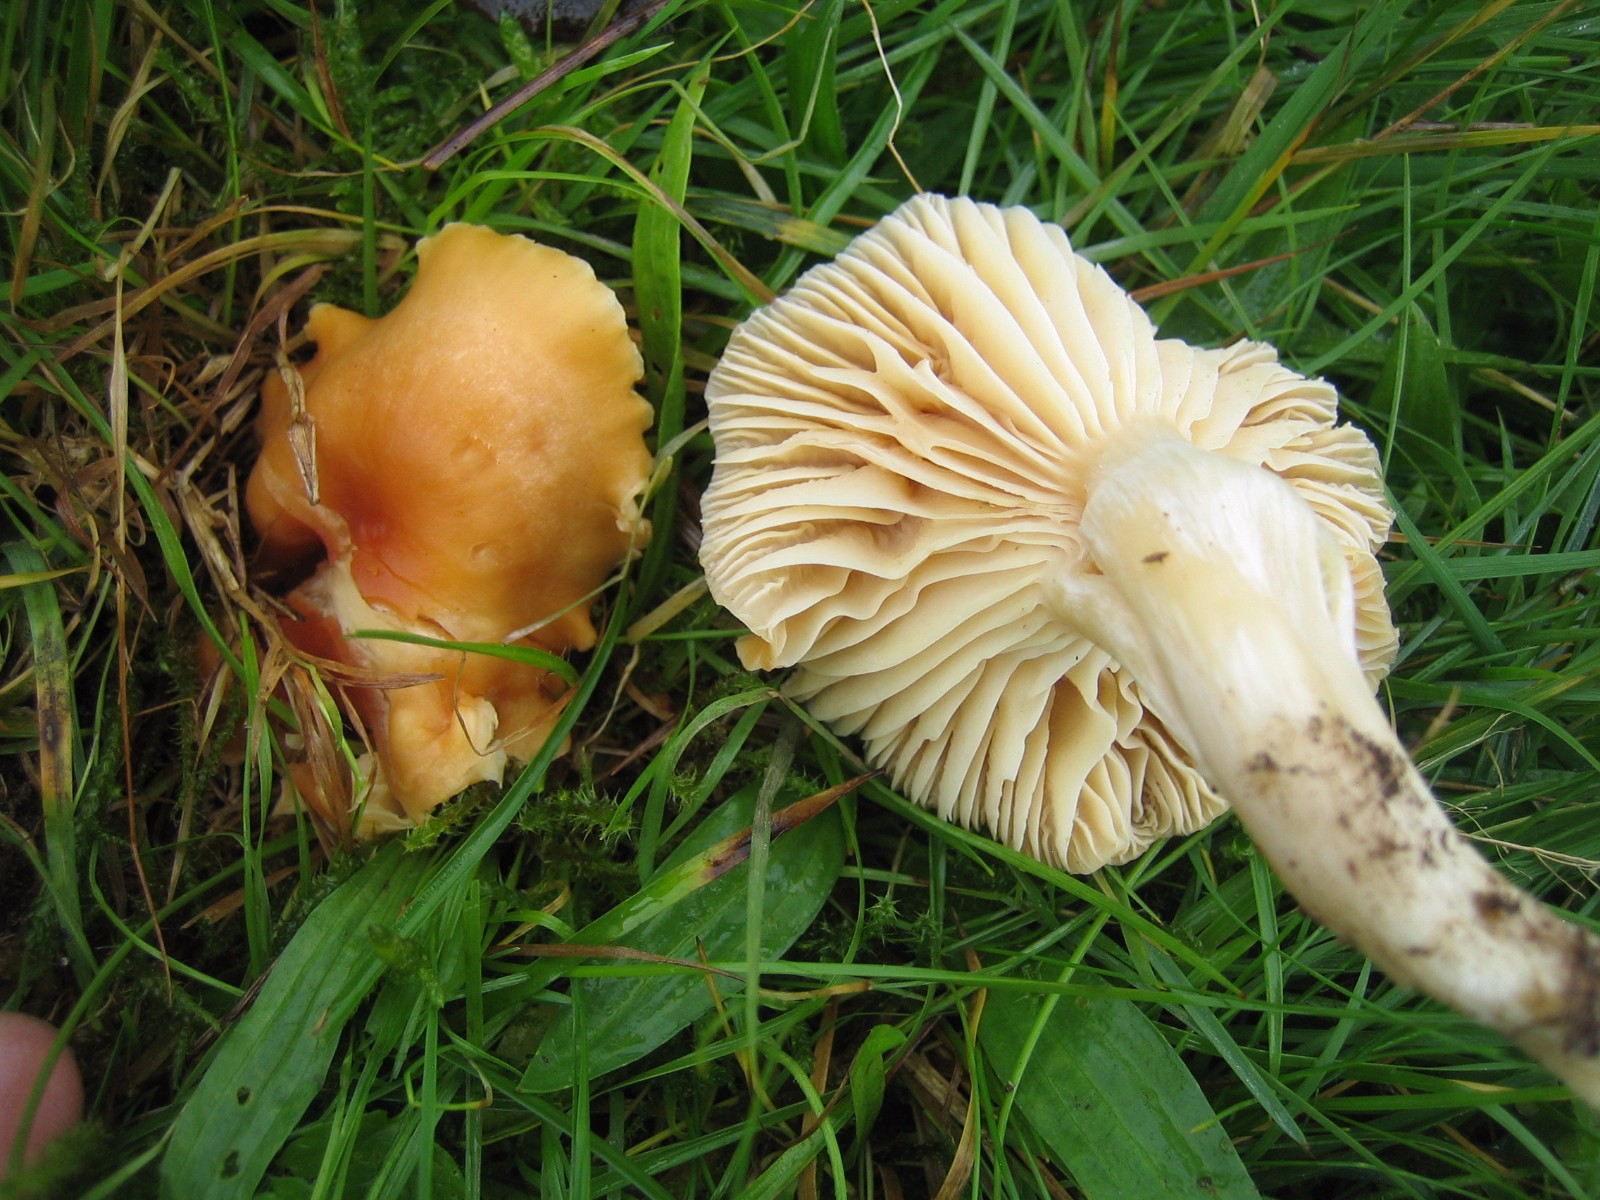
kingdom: Fungi
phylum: Basidiomycota
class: Agaricomycetes
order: Agaricales
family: Hygrophoraceae
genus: Cuphophyllus
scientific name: Cuphophyllus pratensis
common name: eng-vokshat
